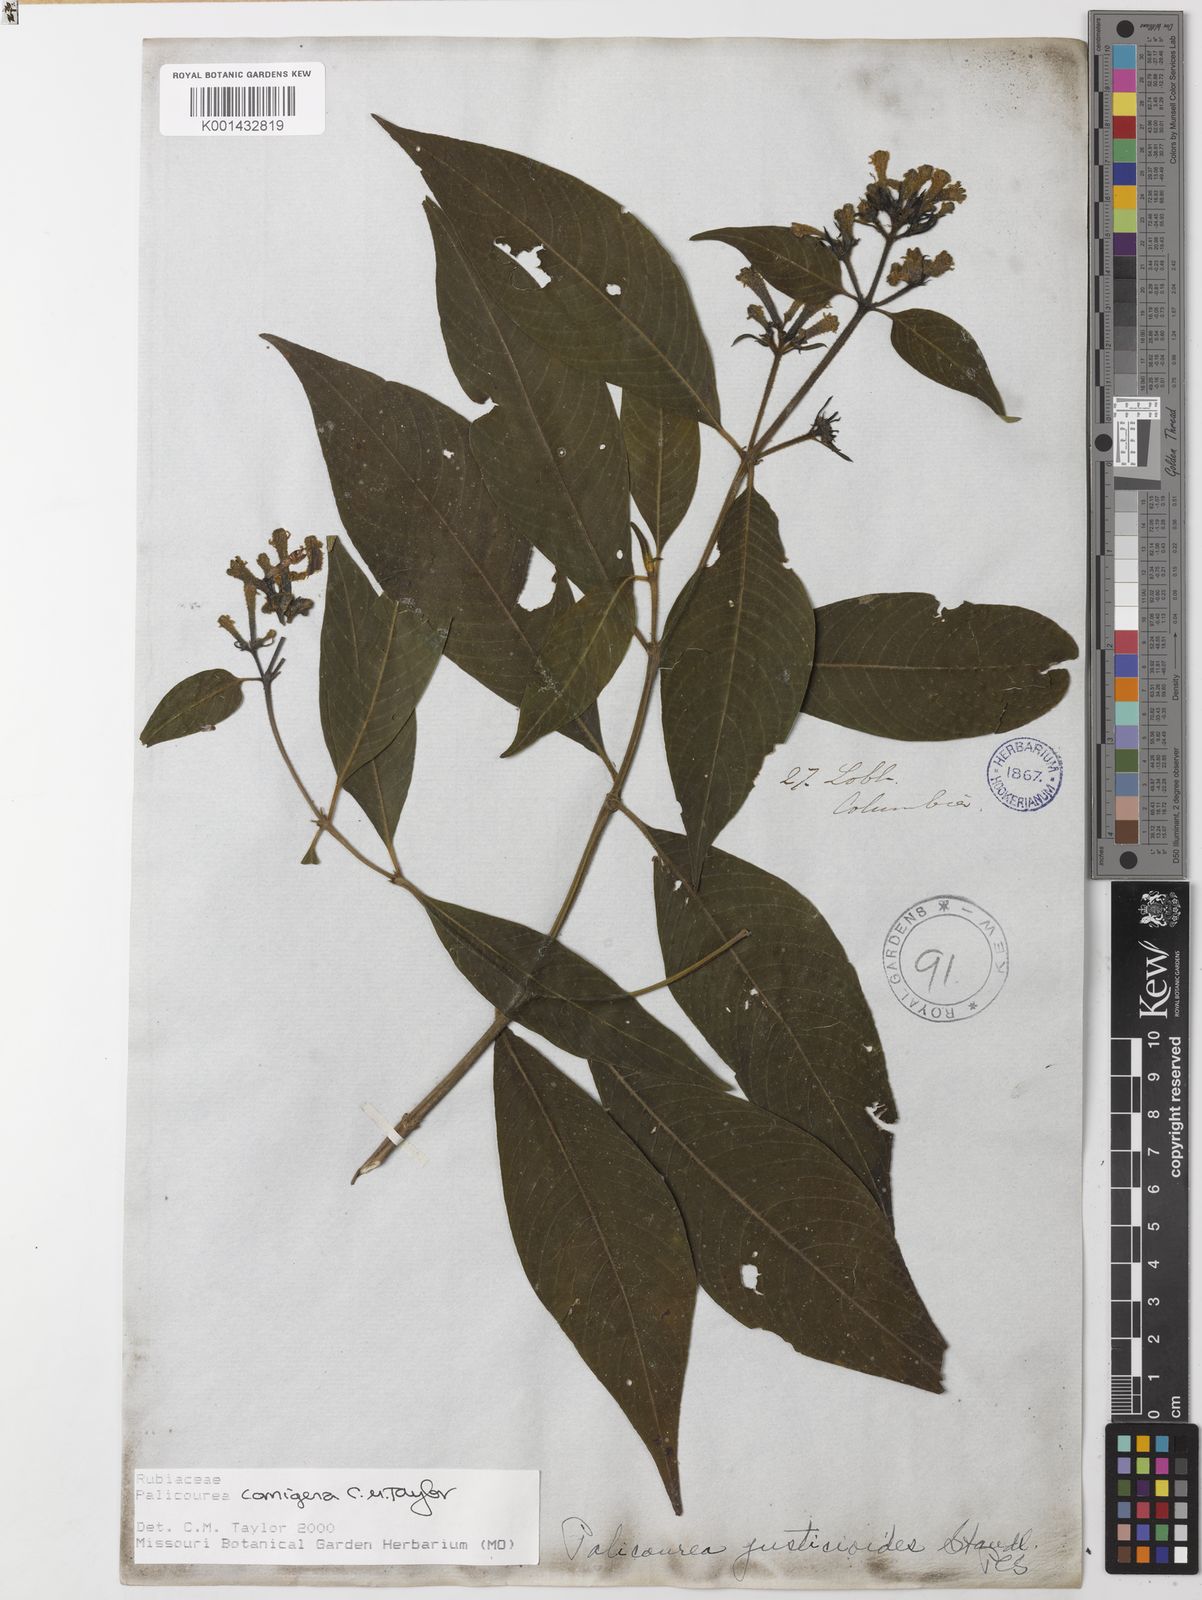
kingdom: Plantae
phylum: Tracheophyta
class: Magnoliopsida
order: Gentianales
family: Rubiaceae
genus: Palicourea
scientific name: Palicourea cornigera
